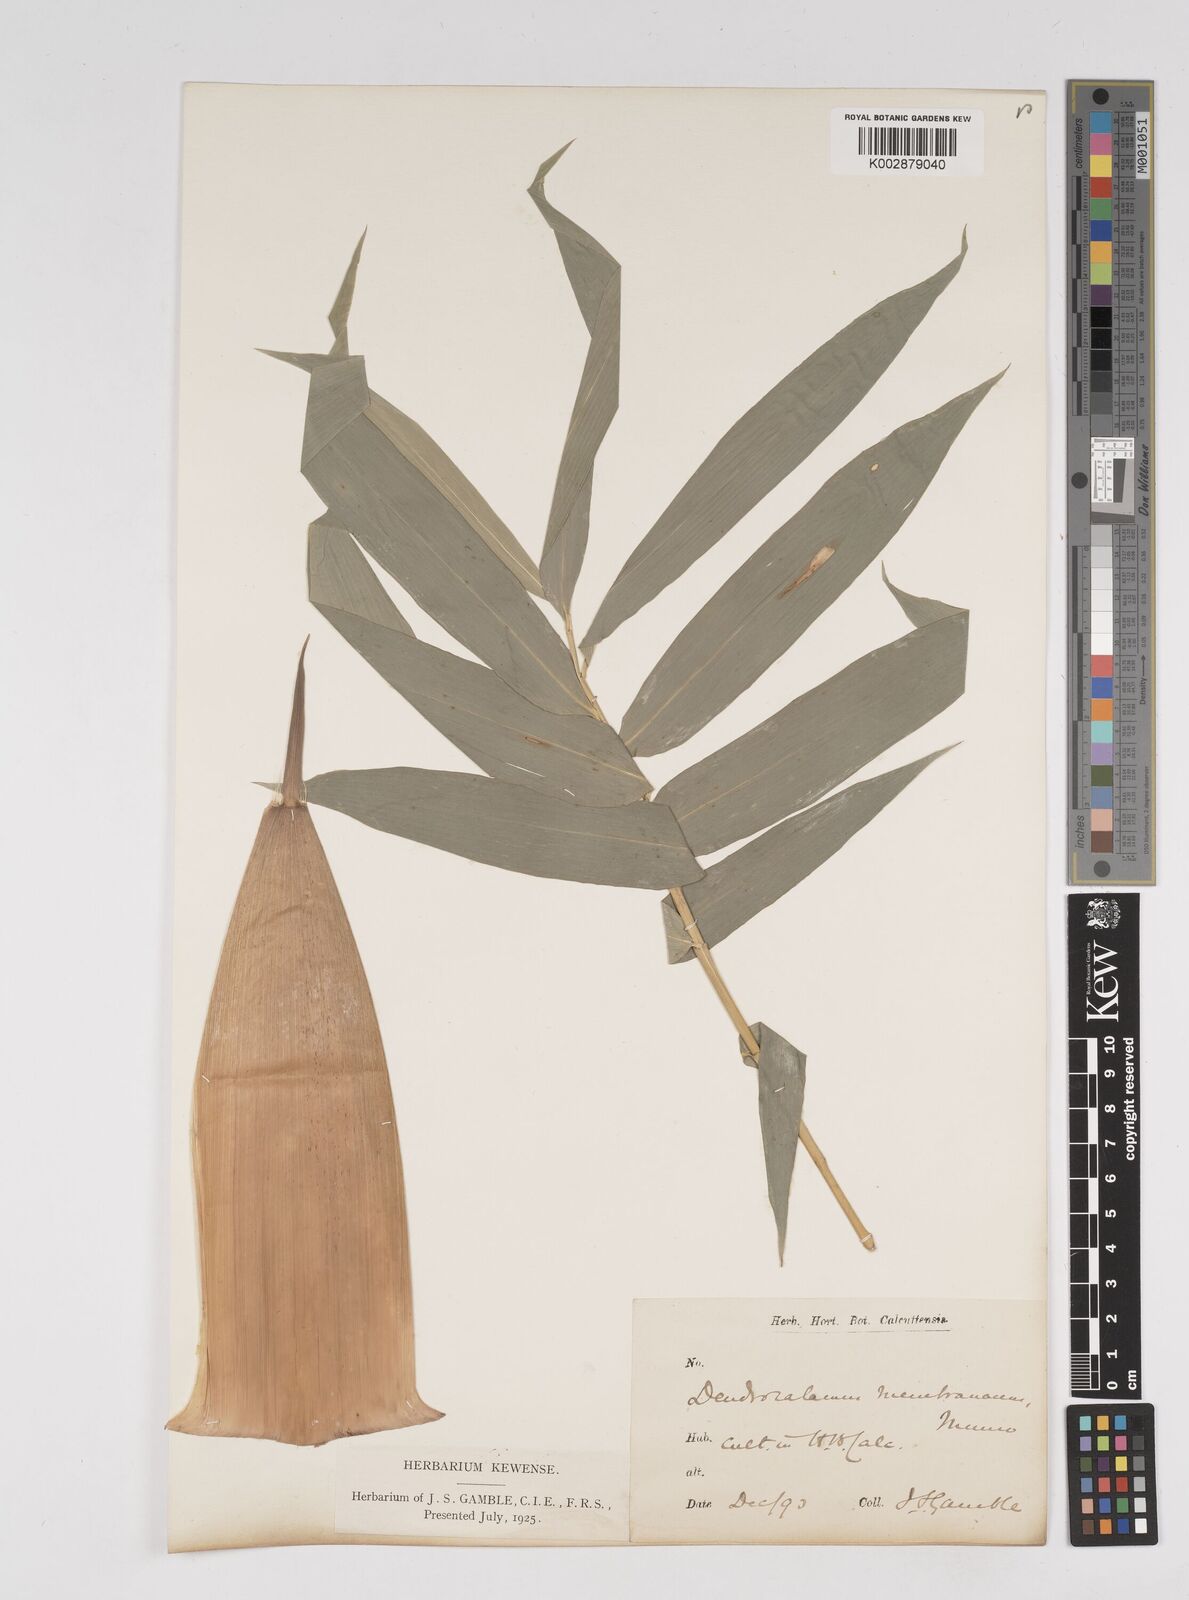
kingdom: Plantae
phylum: Tracheophyta
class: Liliopsida
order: Poales
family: Poaceae
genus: Dendrocalamus
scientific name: Dendrocalamus membranaceus
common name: White bamboo
